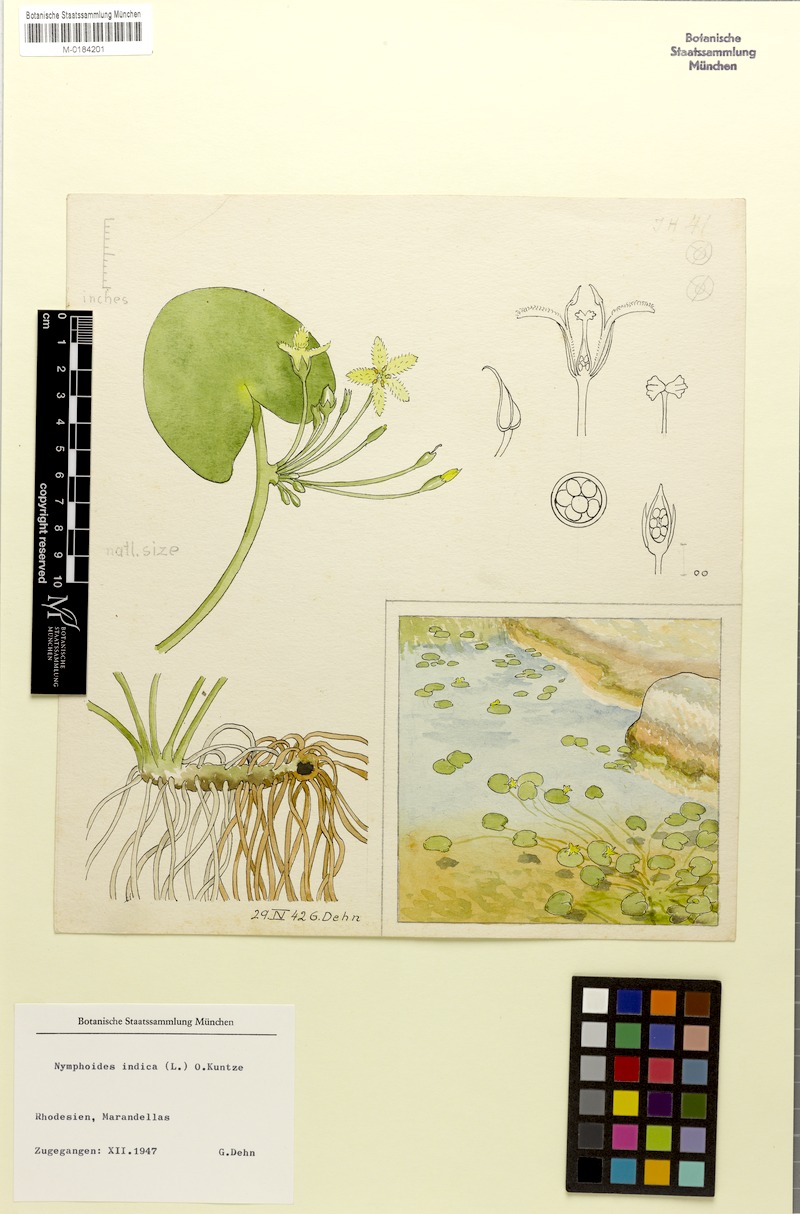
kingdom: Plantae
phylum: Tracheophyta
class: Magnoliopsida
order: Asterales
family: Menyanthaceae
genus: Nymphoides
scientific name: Nymphoides indica
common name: Water-snowflake
